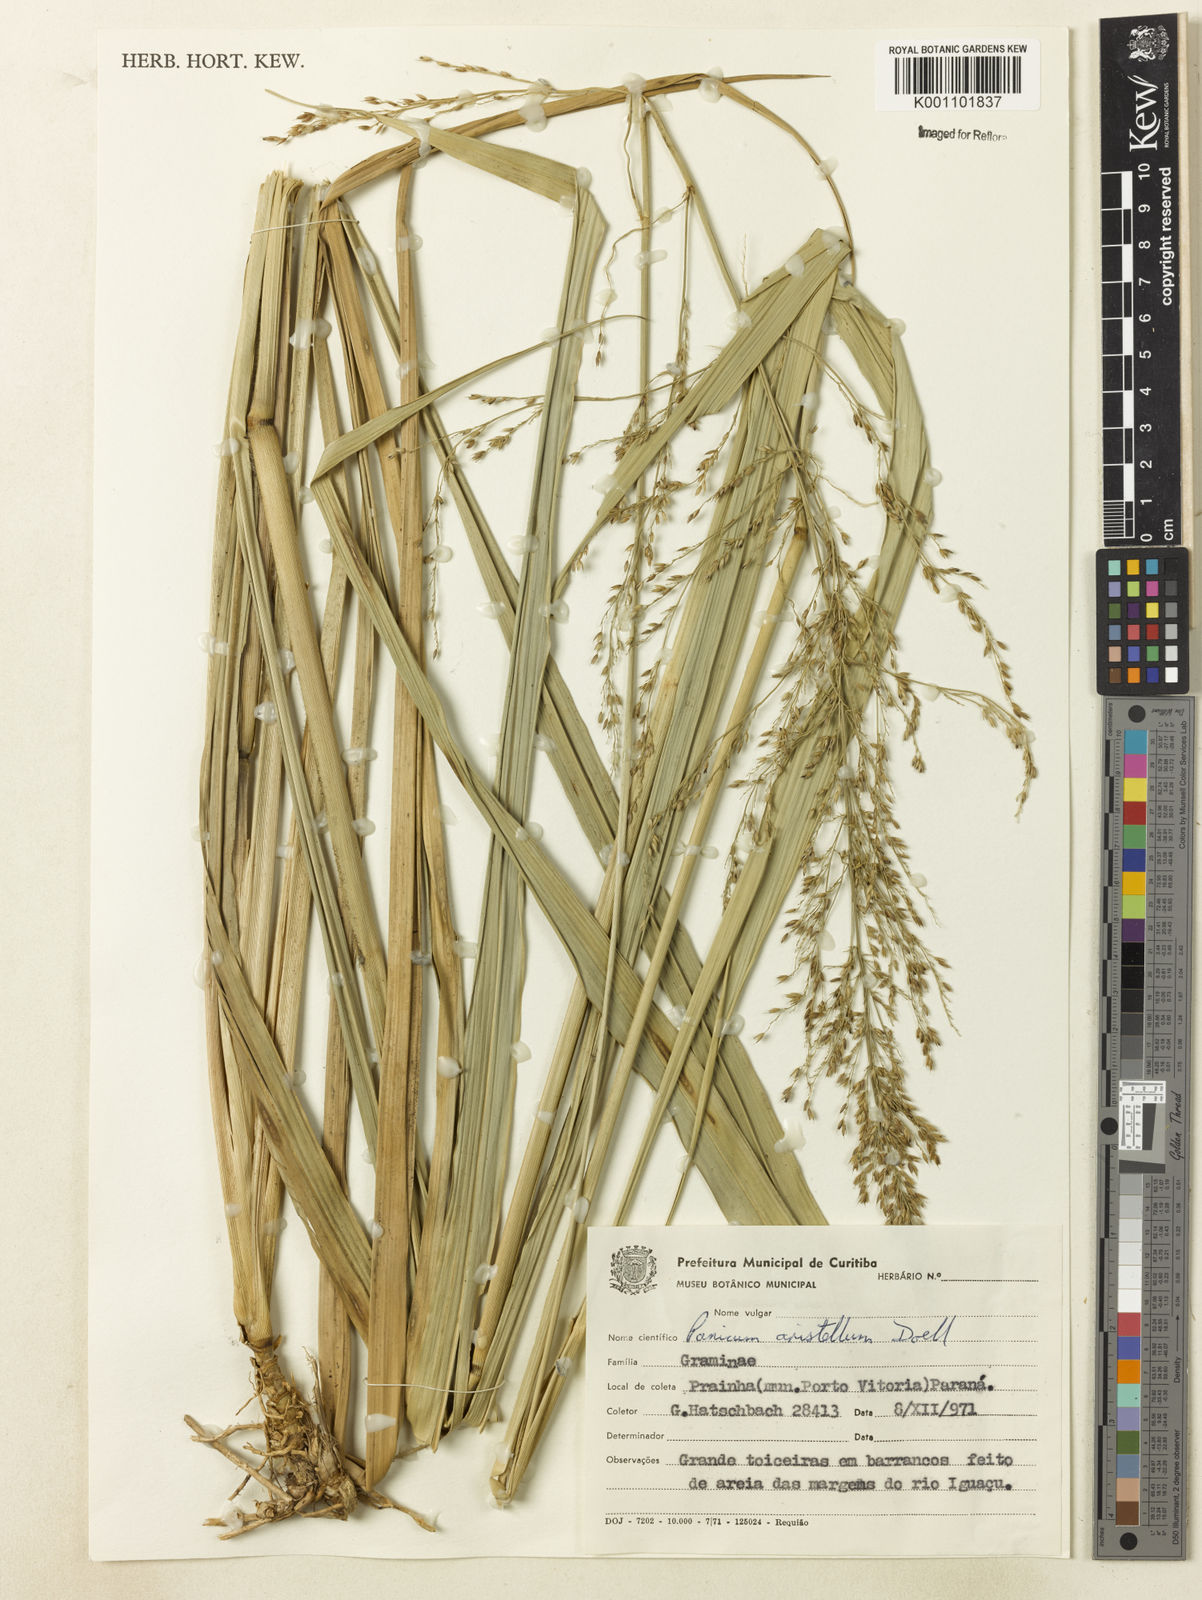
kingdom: Plantae
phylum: Tracheophyta
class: Liliopsida
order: Poales
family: Poaceae
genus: Panicum
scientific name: Panicum
